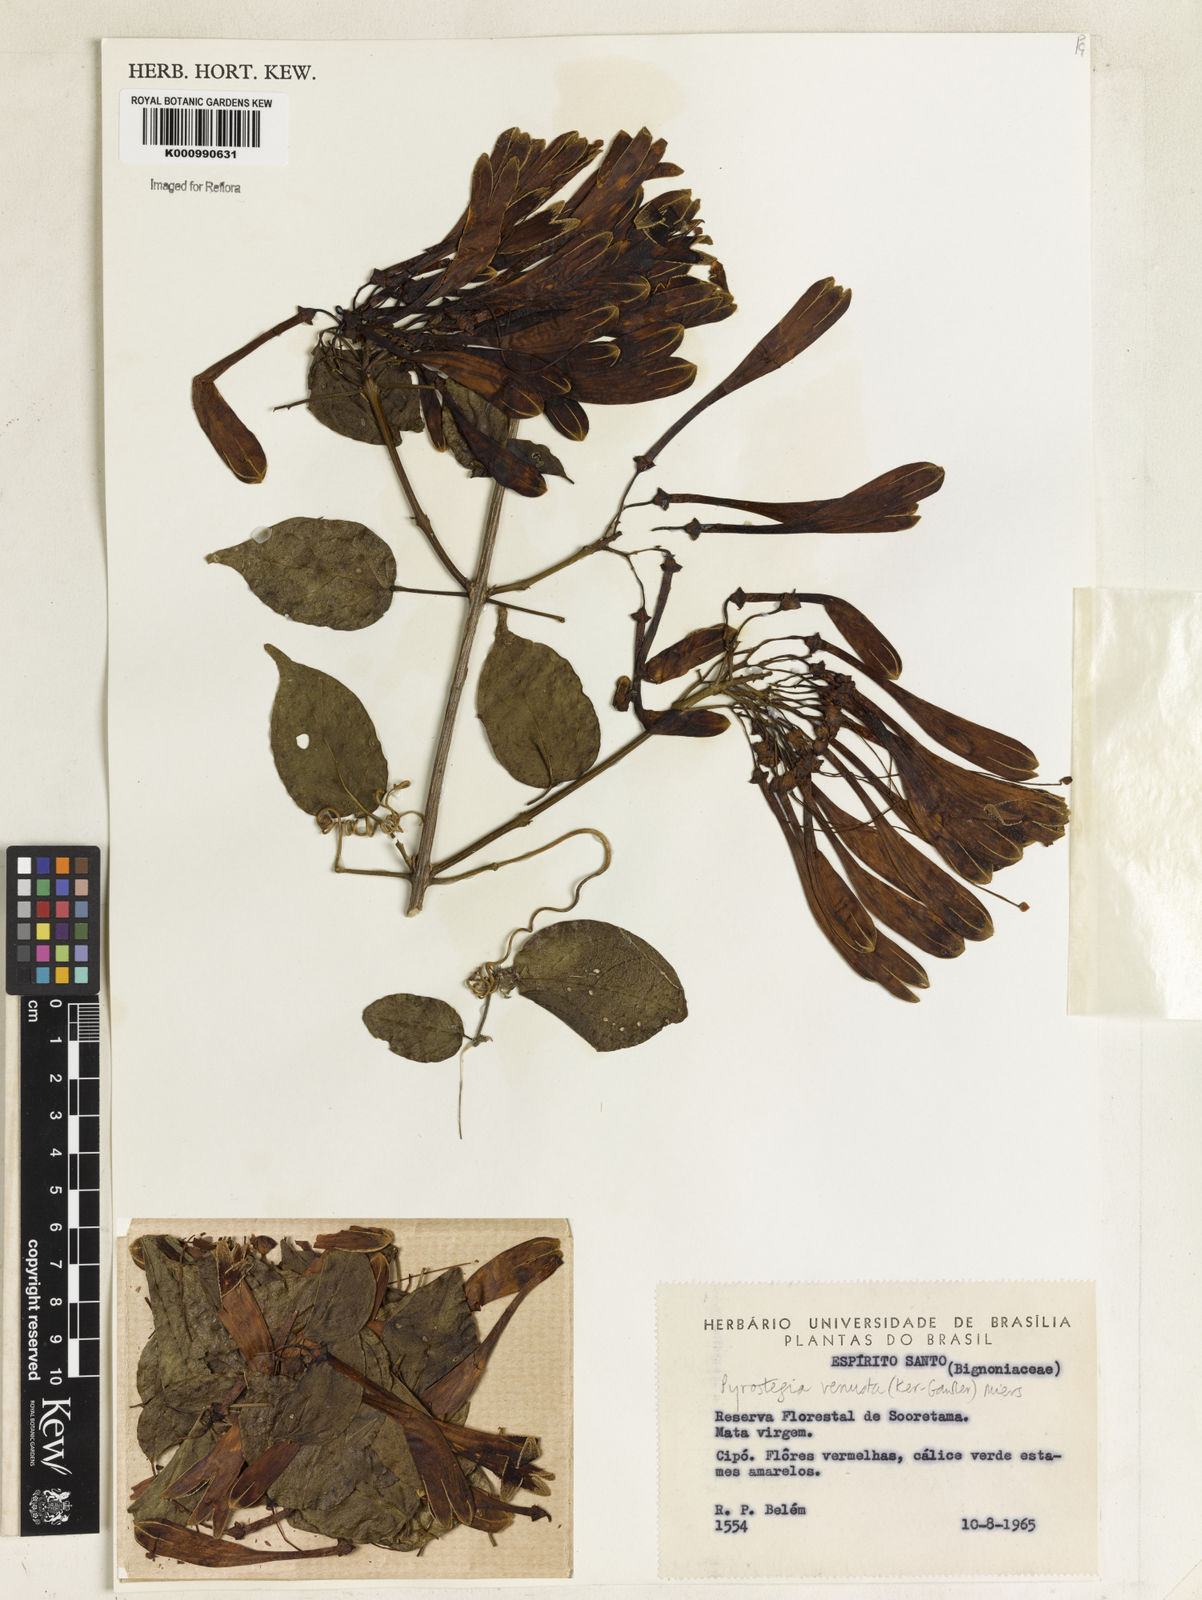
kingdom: Plantae
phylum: Tracheophyta
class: Magnoliopsida
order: Lamiales
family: Bignoniaceae
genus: Pyrostegia
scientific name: Pyrostegia venusta
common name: Flamevine
